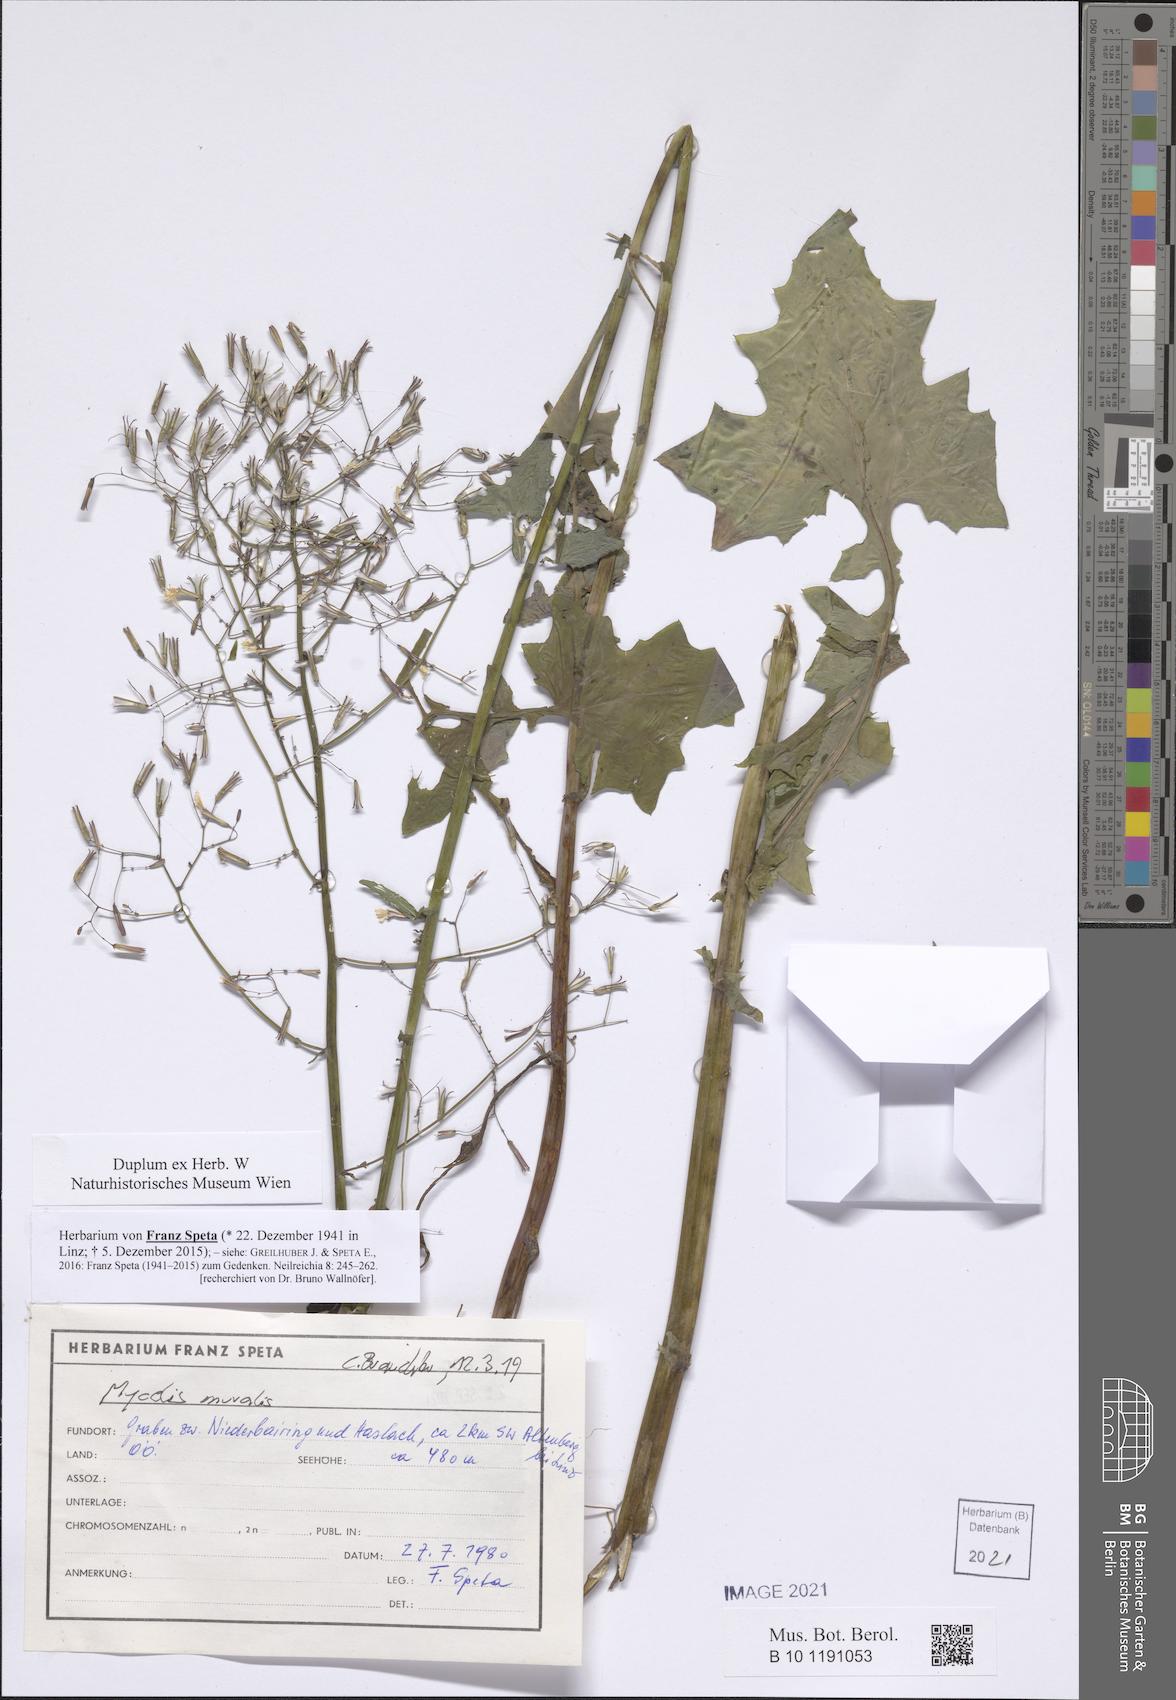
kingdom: Plantae
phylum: Tracheophyta
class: Magnoliopsida
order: Asterales
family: Asteraceae
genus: Mycelis
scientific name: Mycelis muralis
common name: Wall lettuce
